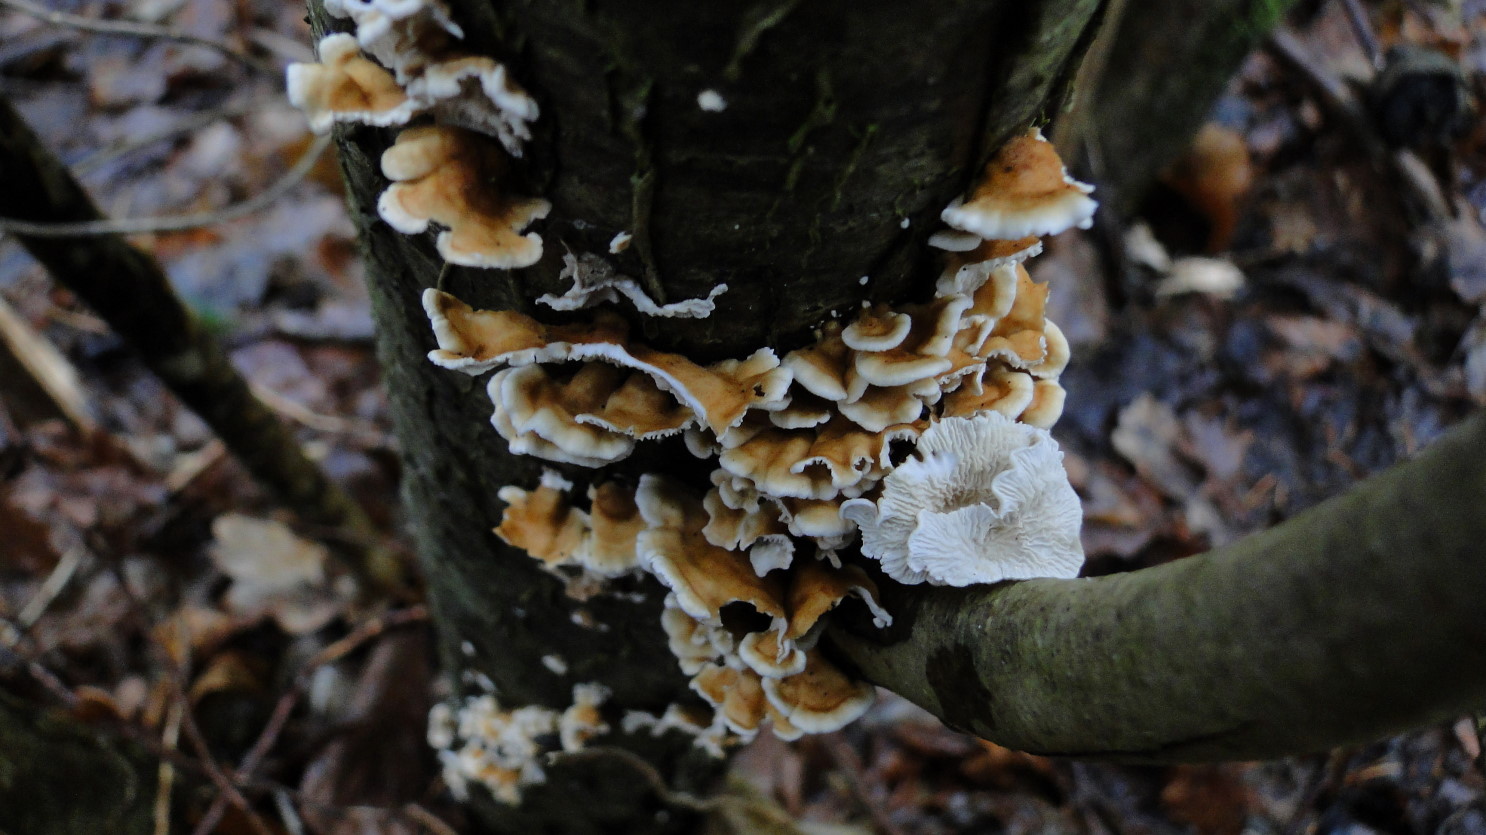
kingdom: Fungi
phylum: Basidiomycota
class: Agaricomycetes
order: Amylocorticiales
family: Amylocorticiaceae
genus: Plicaturopsis
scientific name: Plicaturopsis crispa
